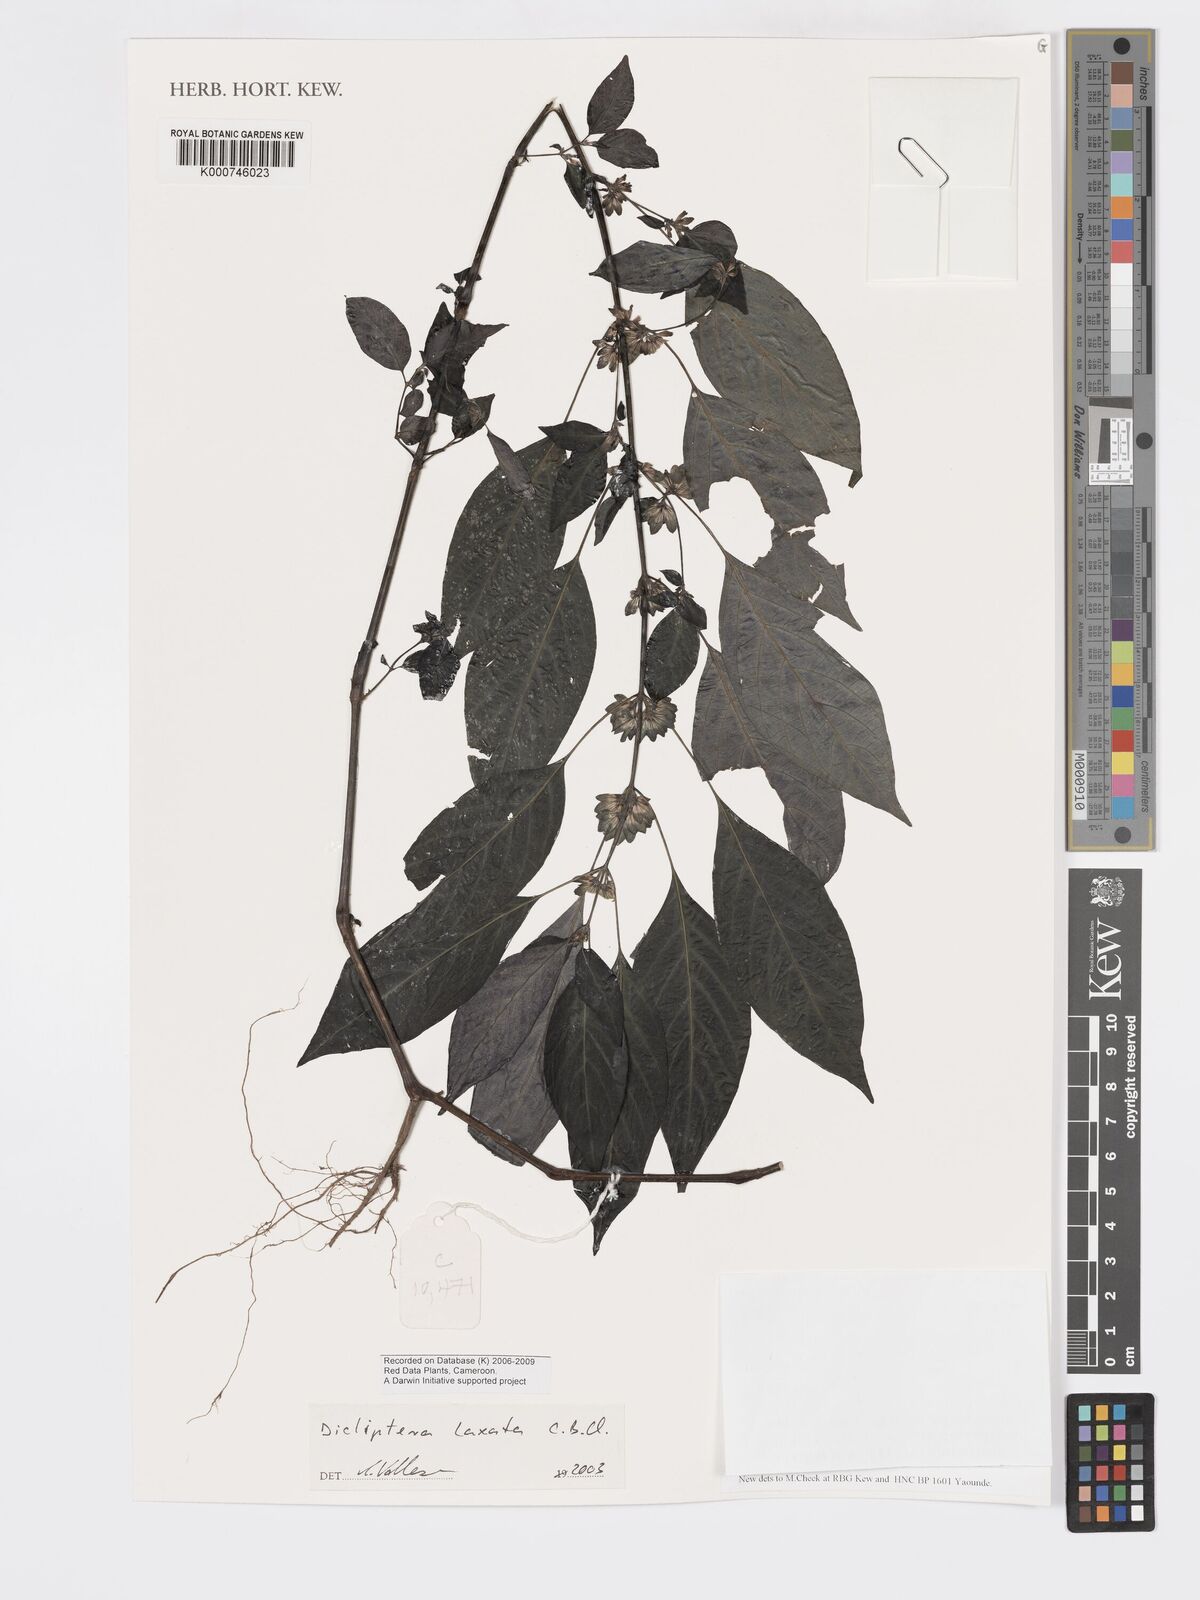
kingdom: Plantae
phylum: Tracheophyta
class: Magnoliopsida
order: Lamiales
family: Acanthaceae
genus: Dicliptera
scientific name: Dicliptera laxata
